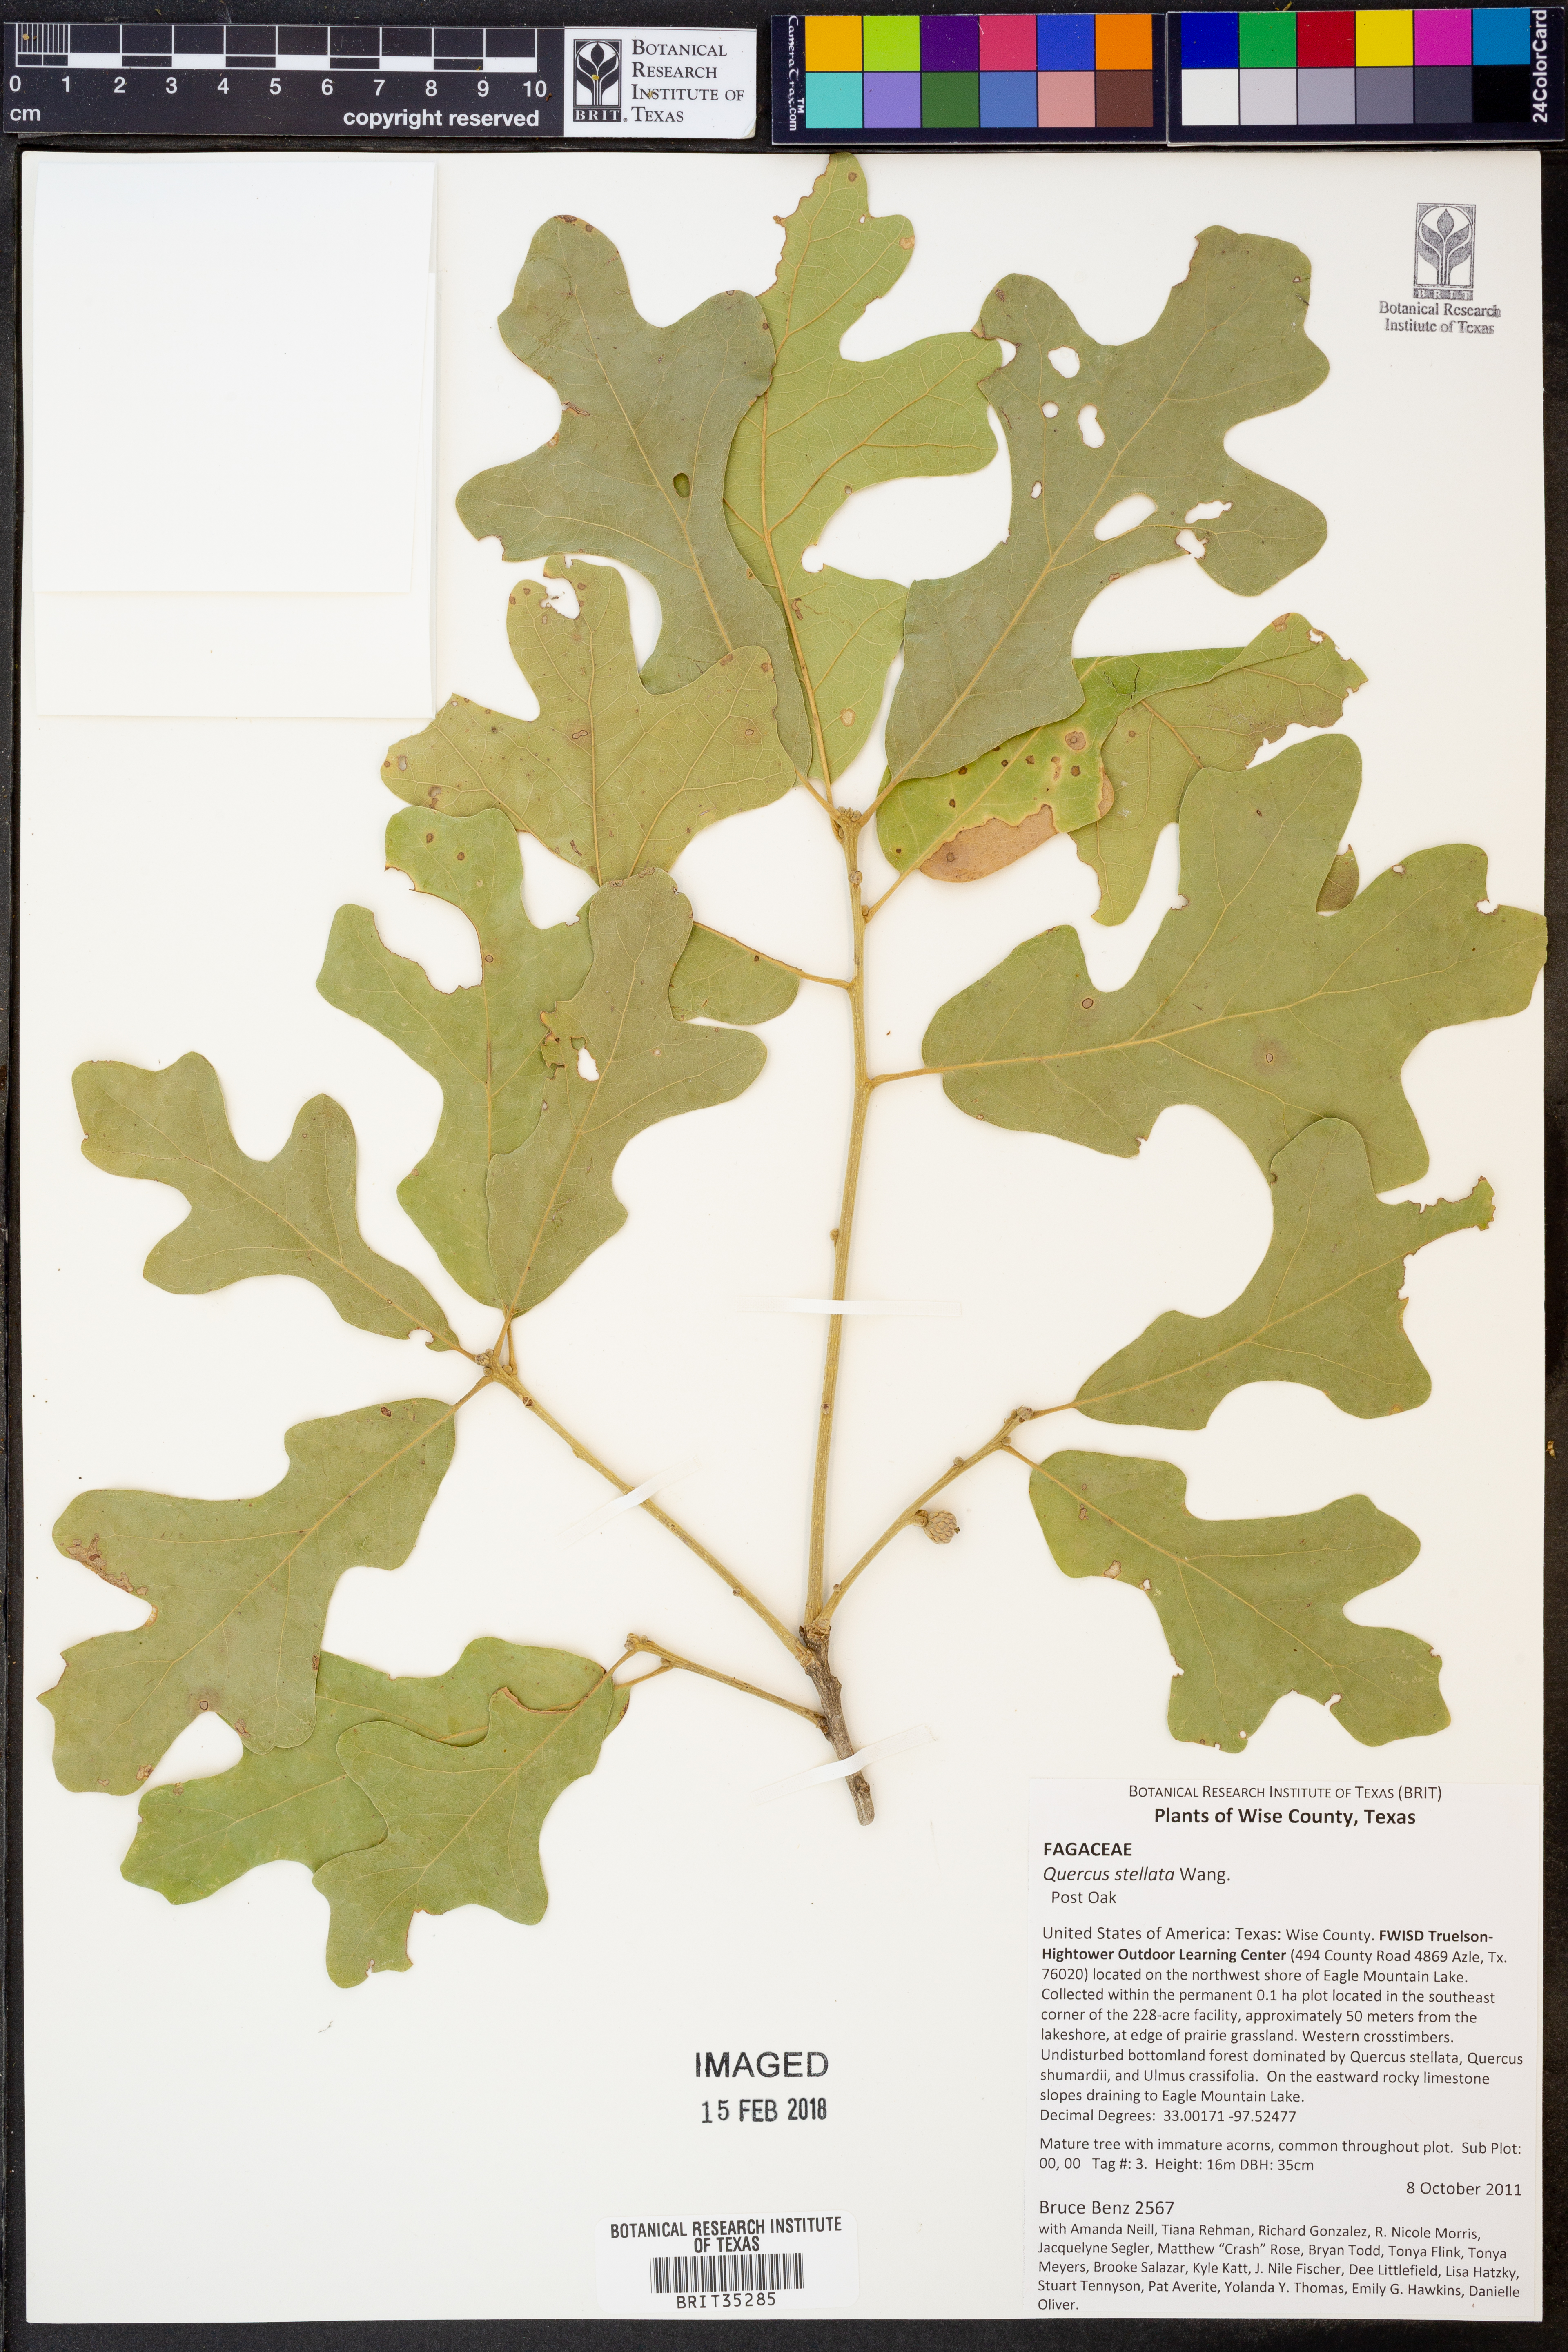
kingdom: Plantae
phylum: Tracheophyta
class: Magnoliopsida
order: Fagales
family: Fagaceae
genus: Quercus
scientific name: Quercus stellata
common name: Post oak
